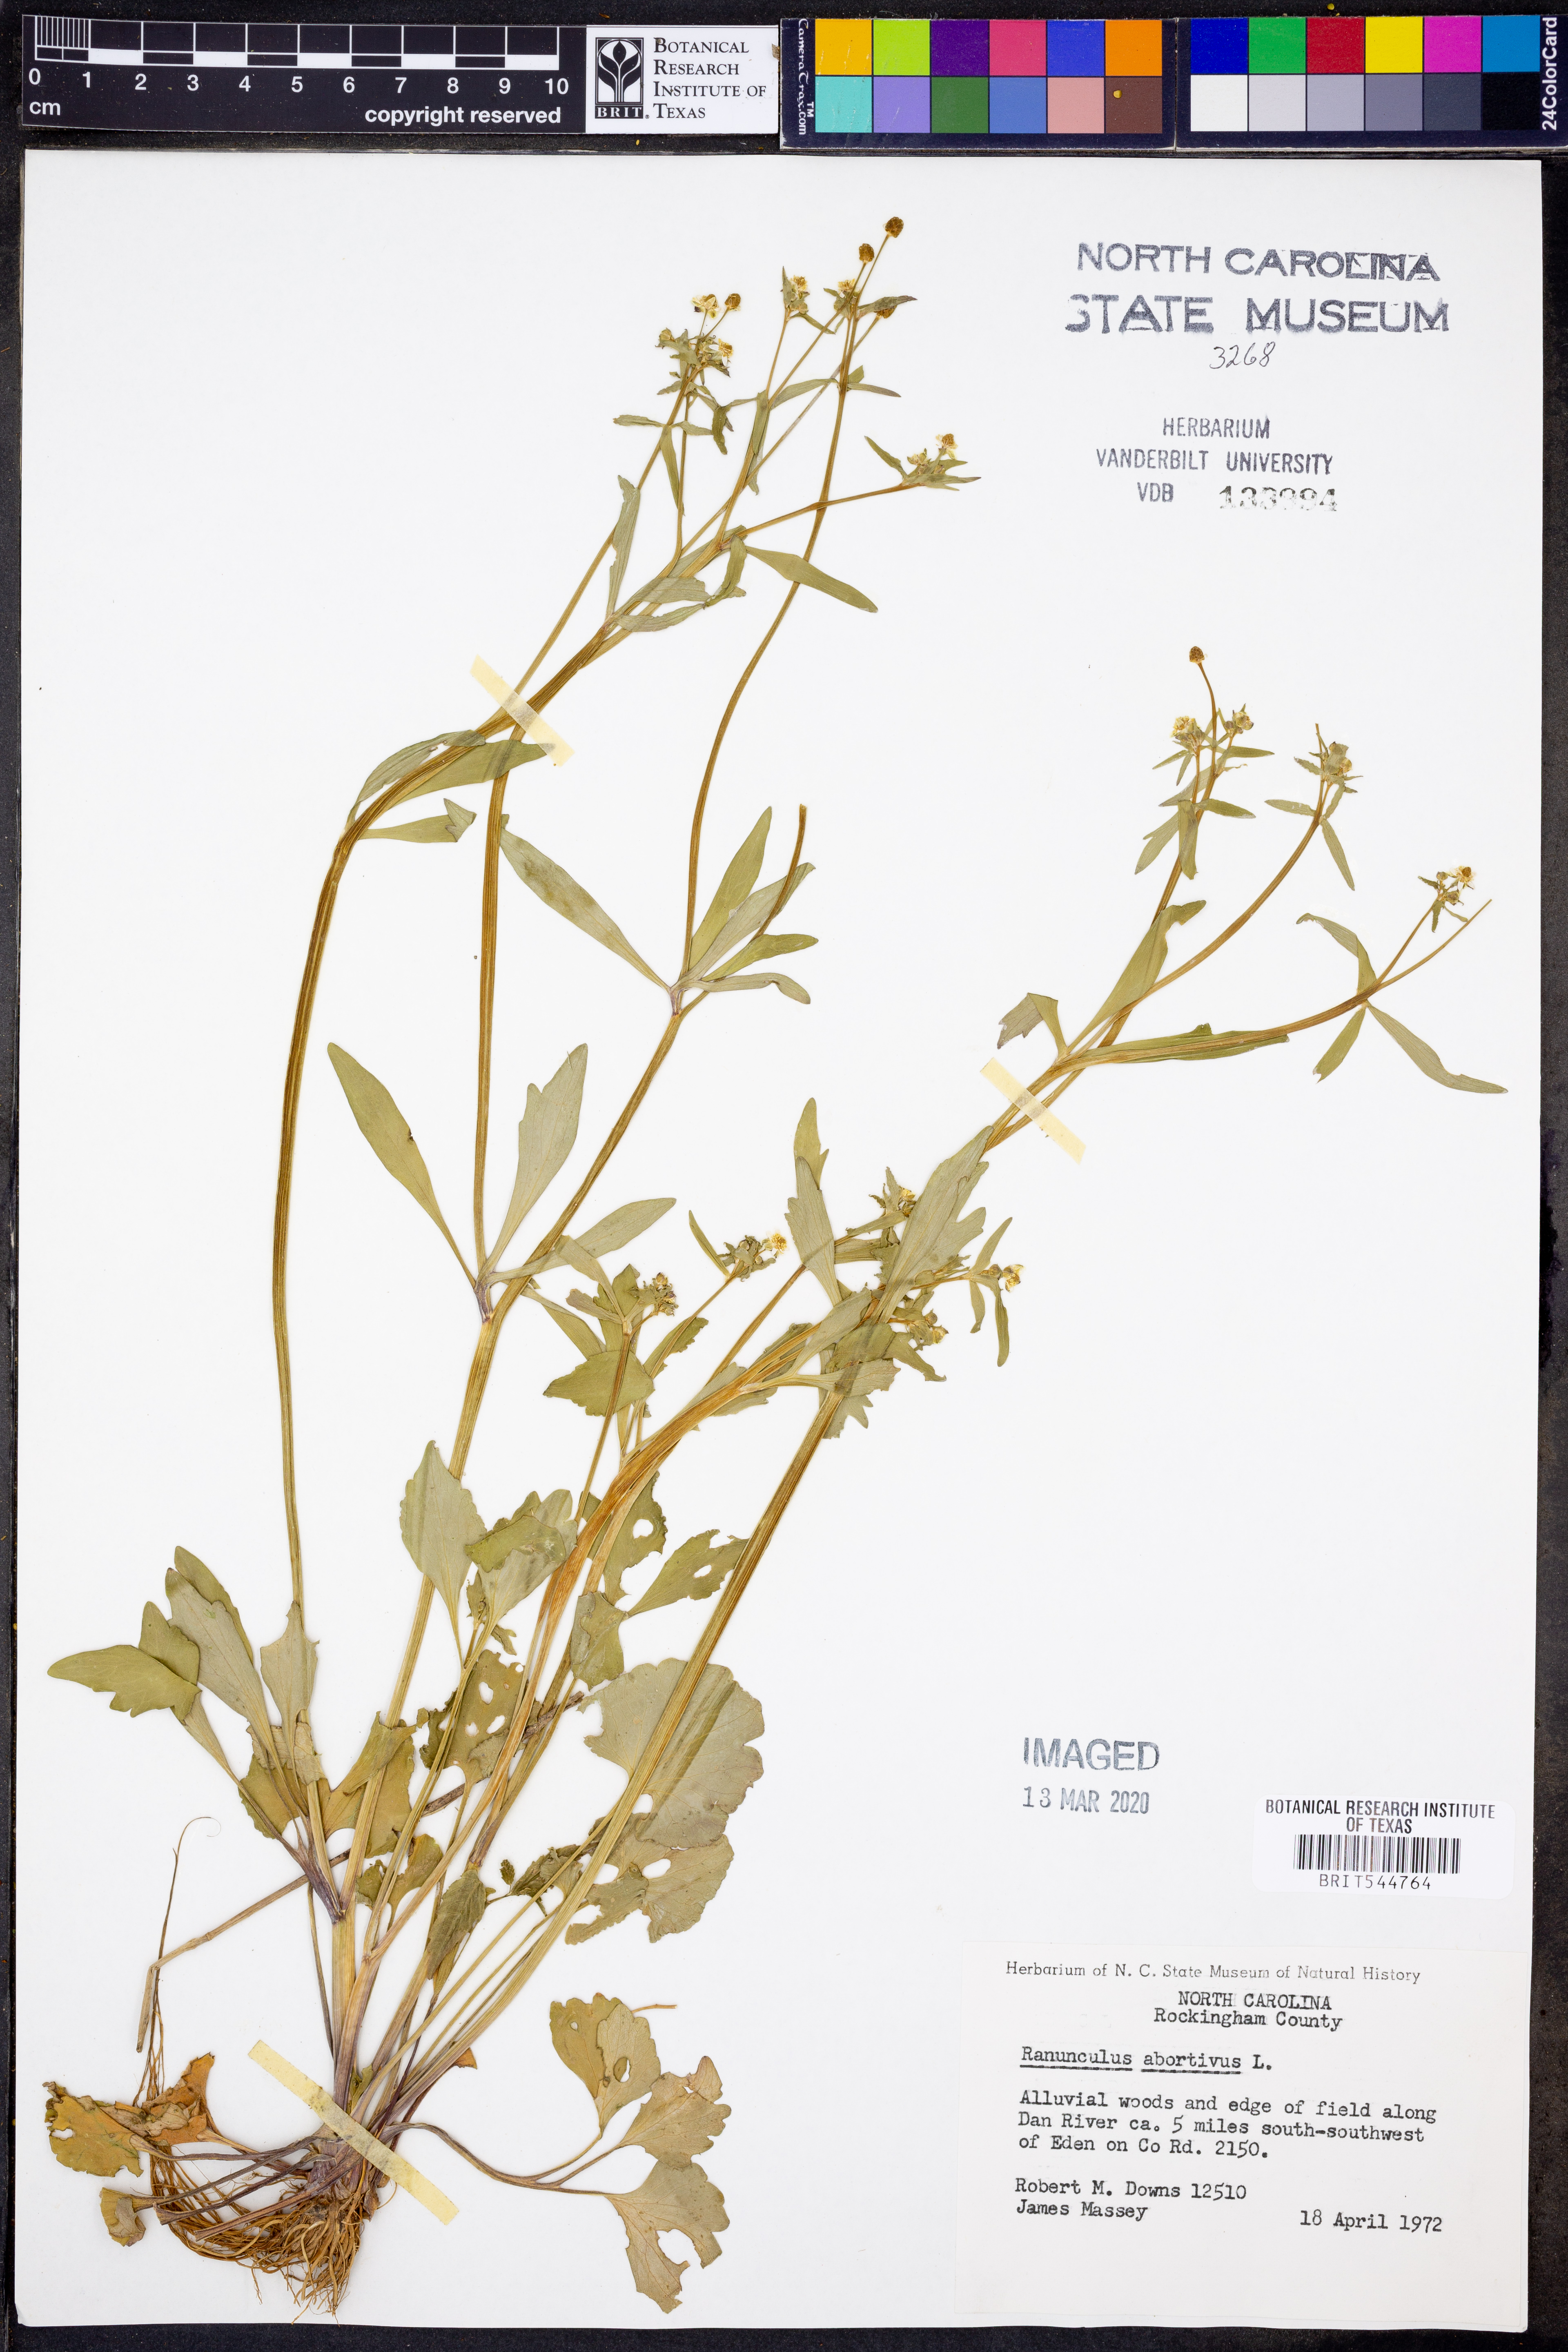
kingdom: Plantae
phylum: Tracheophyta
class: Magnoliopsida
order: Ranunculales
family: Ranunculaceae
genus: Ranunculus
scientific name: Ranunculus abortivus
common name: Early wood buttercup
